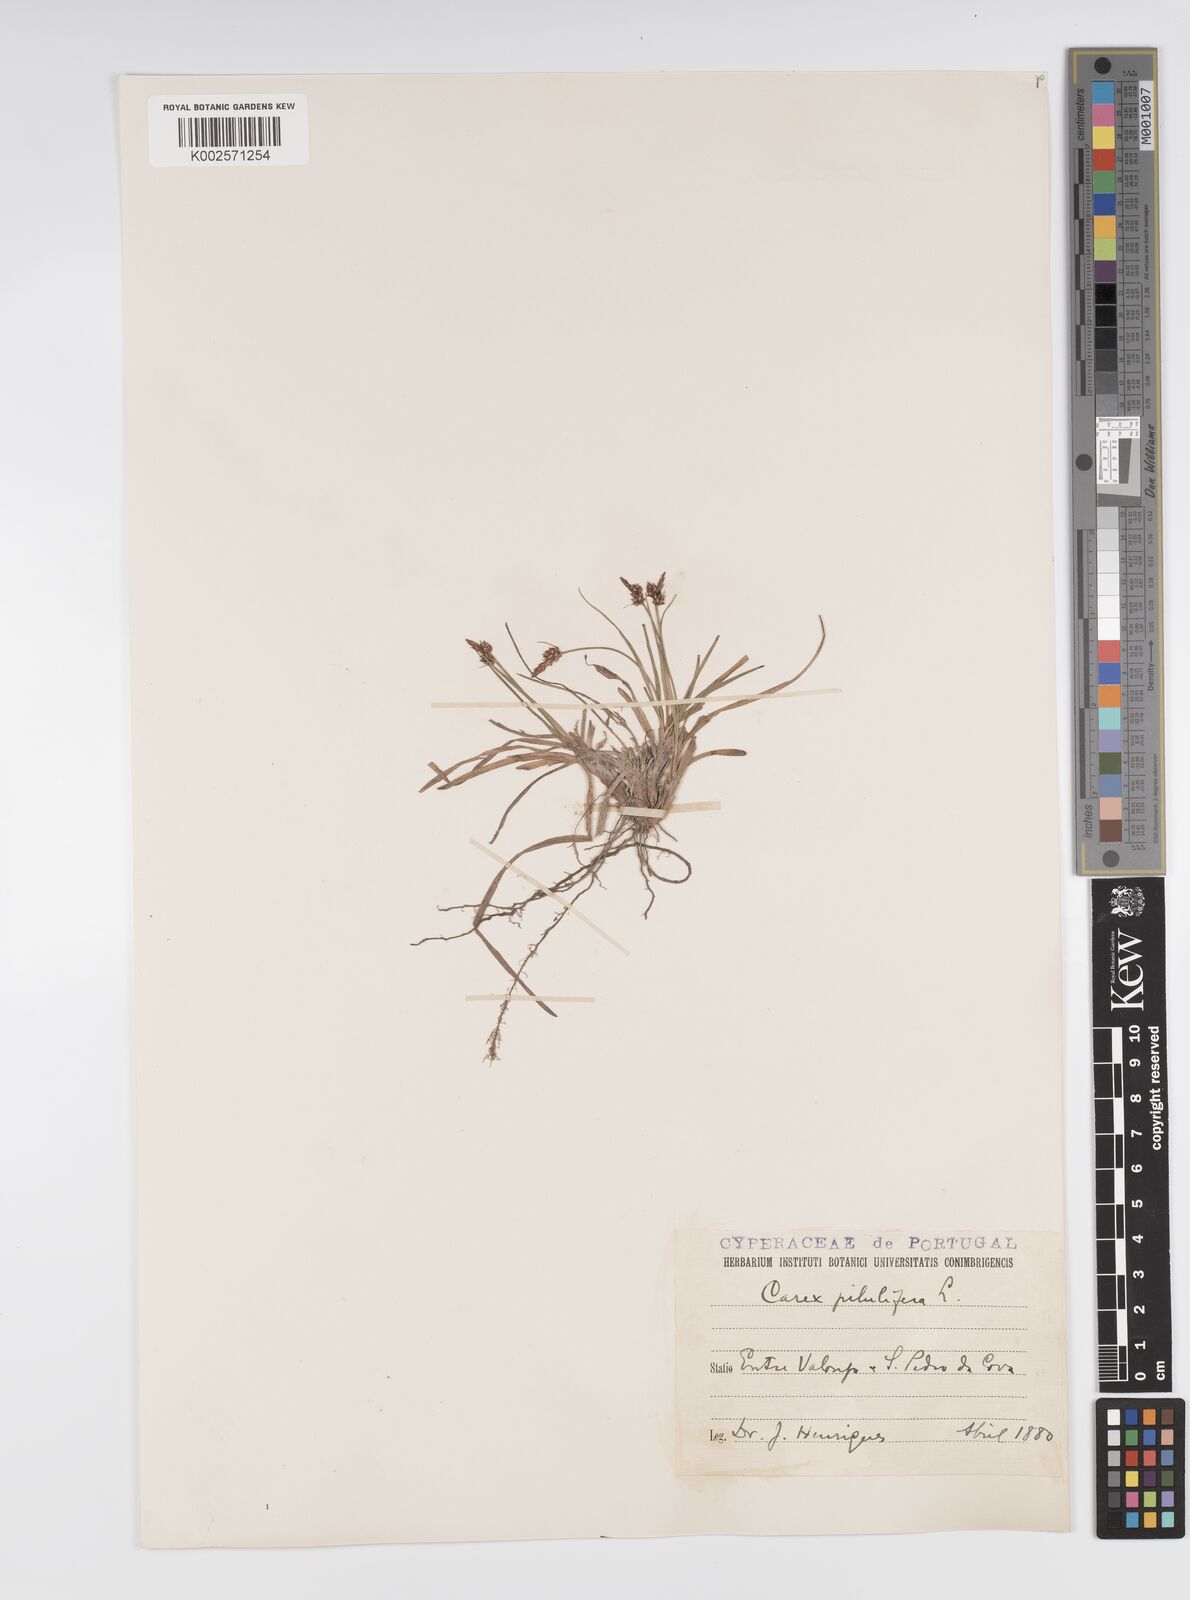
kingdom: Plantae
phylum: Tracheophyta
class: Liliopsida
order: Poales
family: Cyperaceae
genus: Carex
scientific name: Carex pilulifera
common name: Pill sedge
